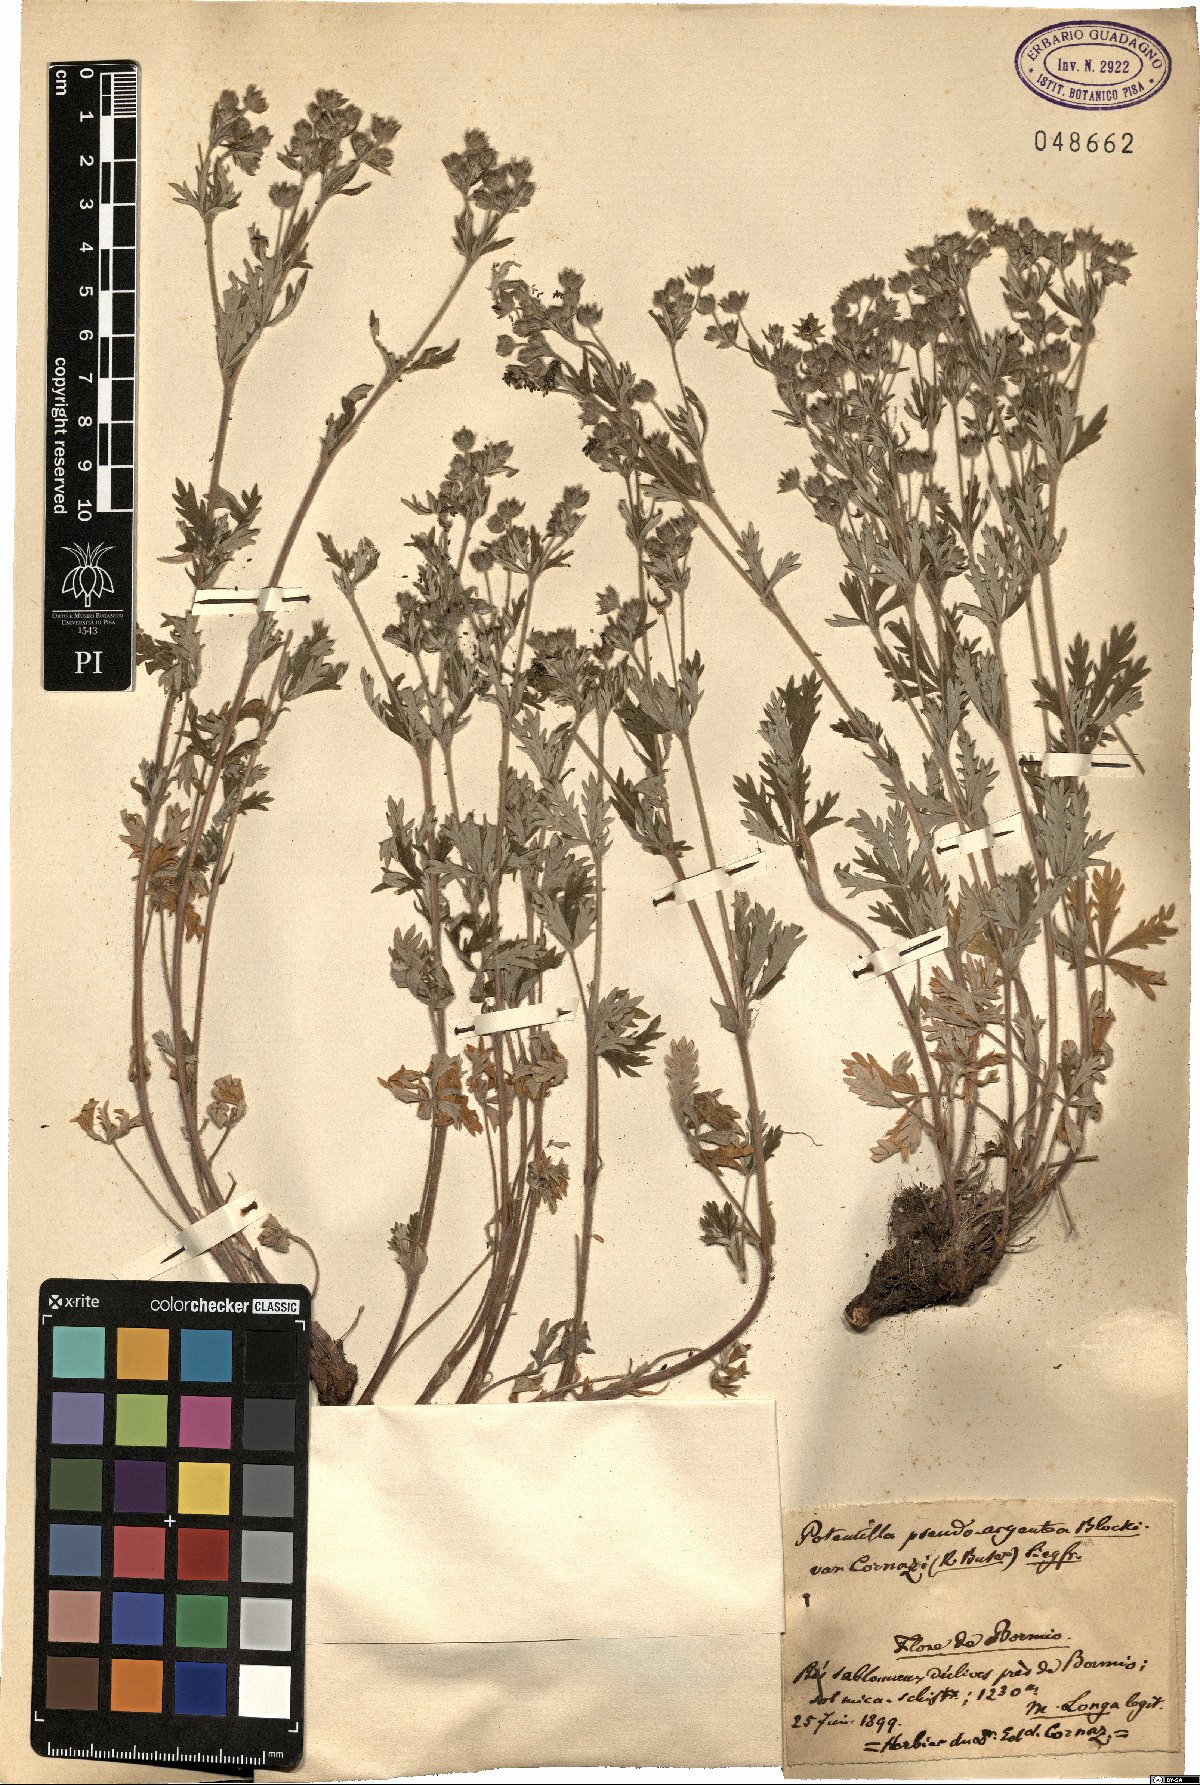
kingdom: Plantae
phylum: Tracheophyta
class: Magnoliopsida
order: Rosales
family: Rosaceae
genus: Potentilla
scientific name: Potentilla pseudo-argentea
